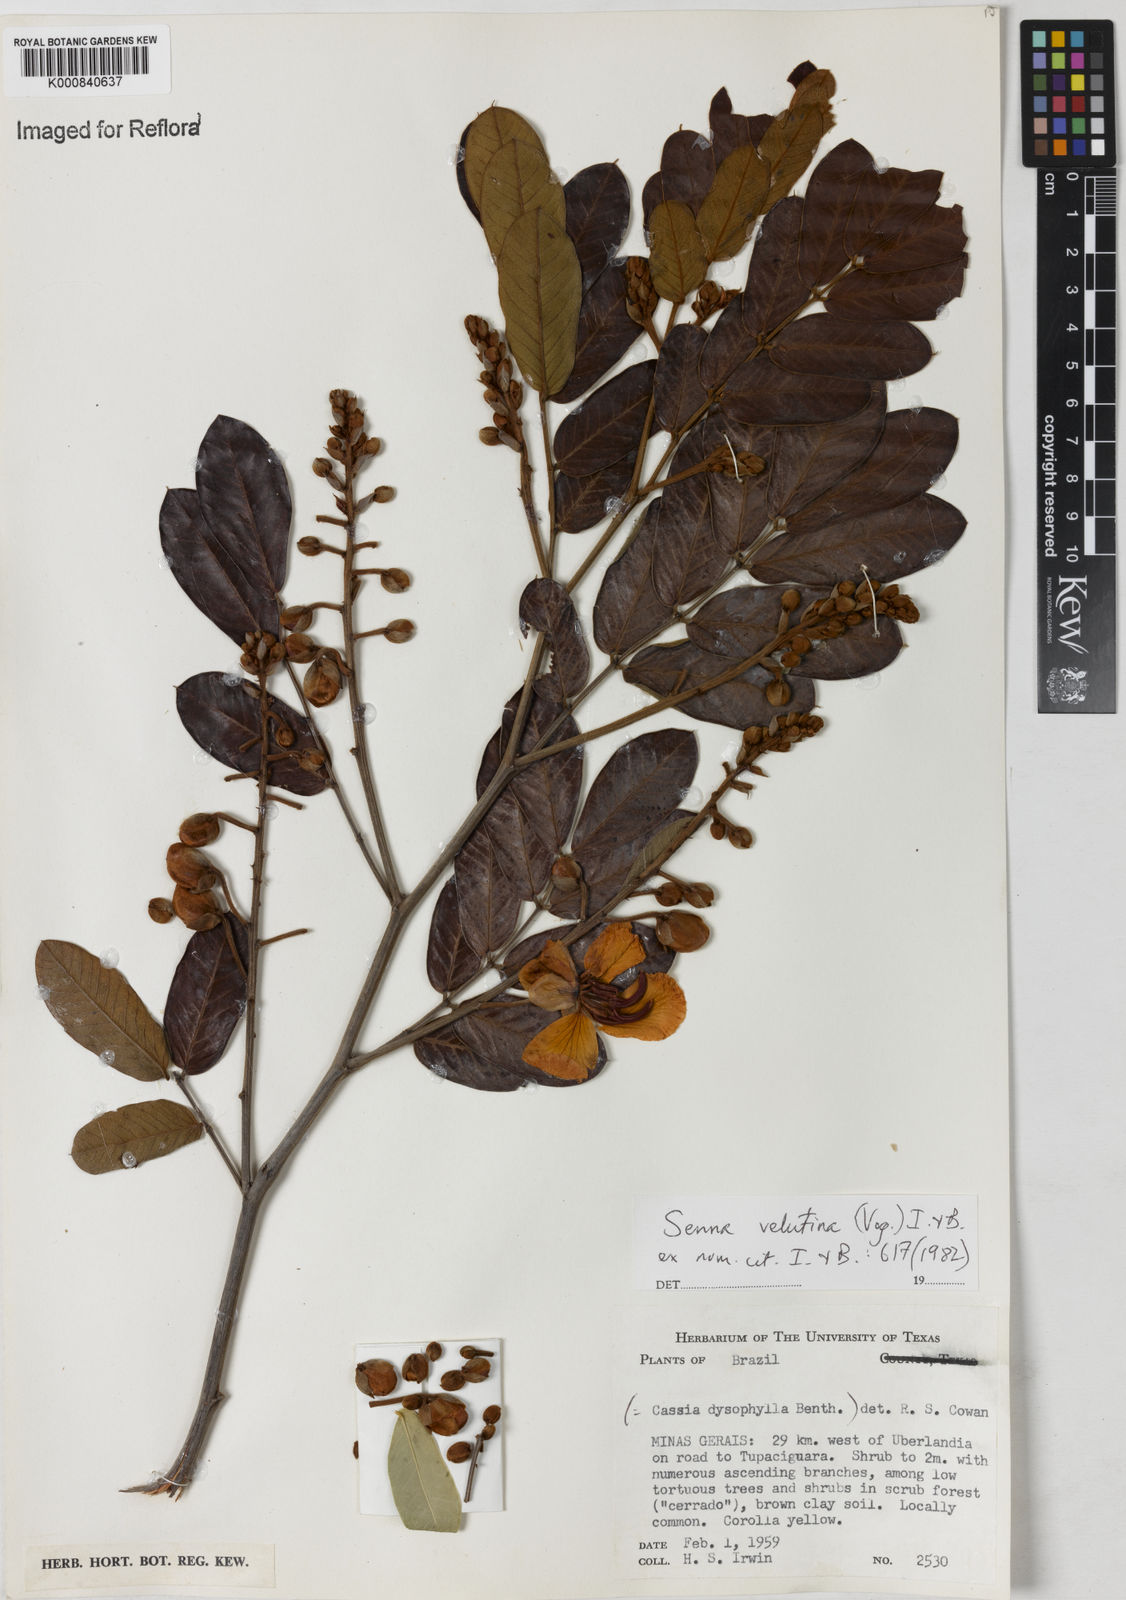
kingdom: Plantae
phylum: Tracheophyta
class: Magnoliopsida
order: Fabales
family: Fabaceae
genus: Senna
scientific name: Senna velutina
